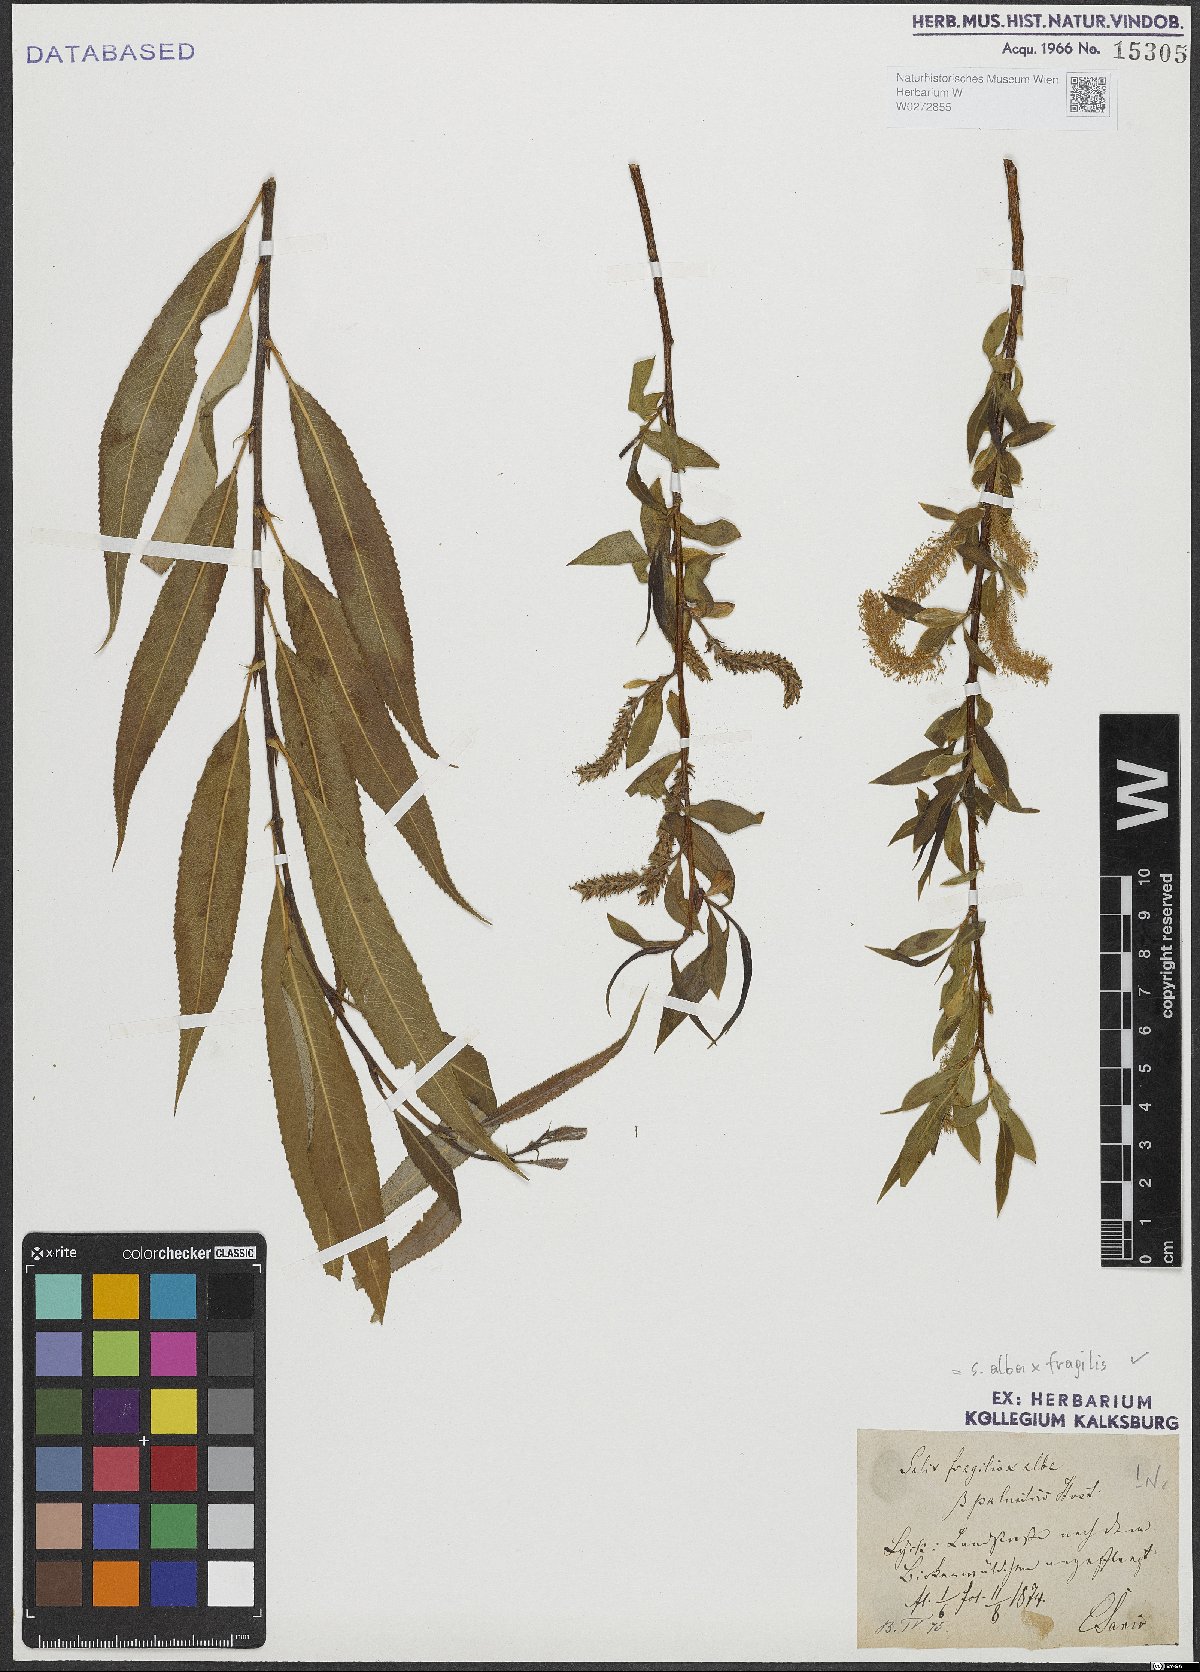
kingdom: Plantae
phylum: Tracheophyta
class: Magnoliopsida
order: Malpighiales
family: Salicaceae
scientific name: Salicaceae
